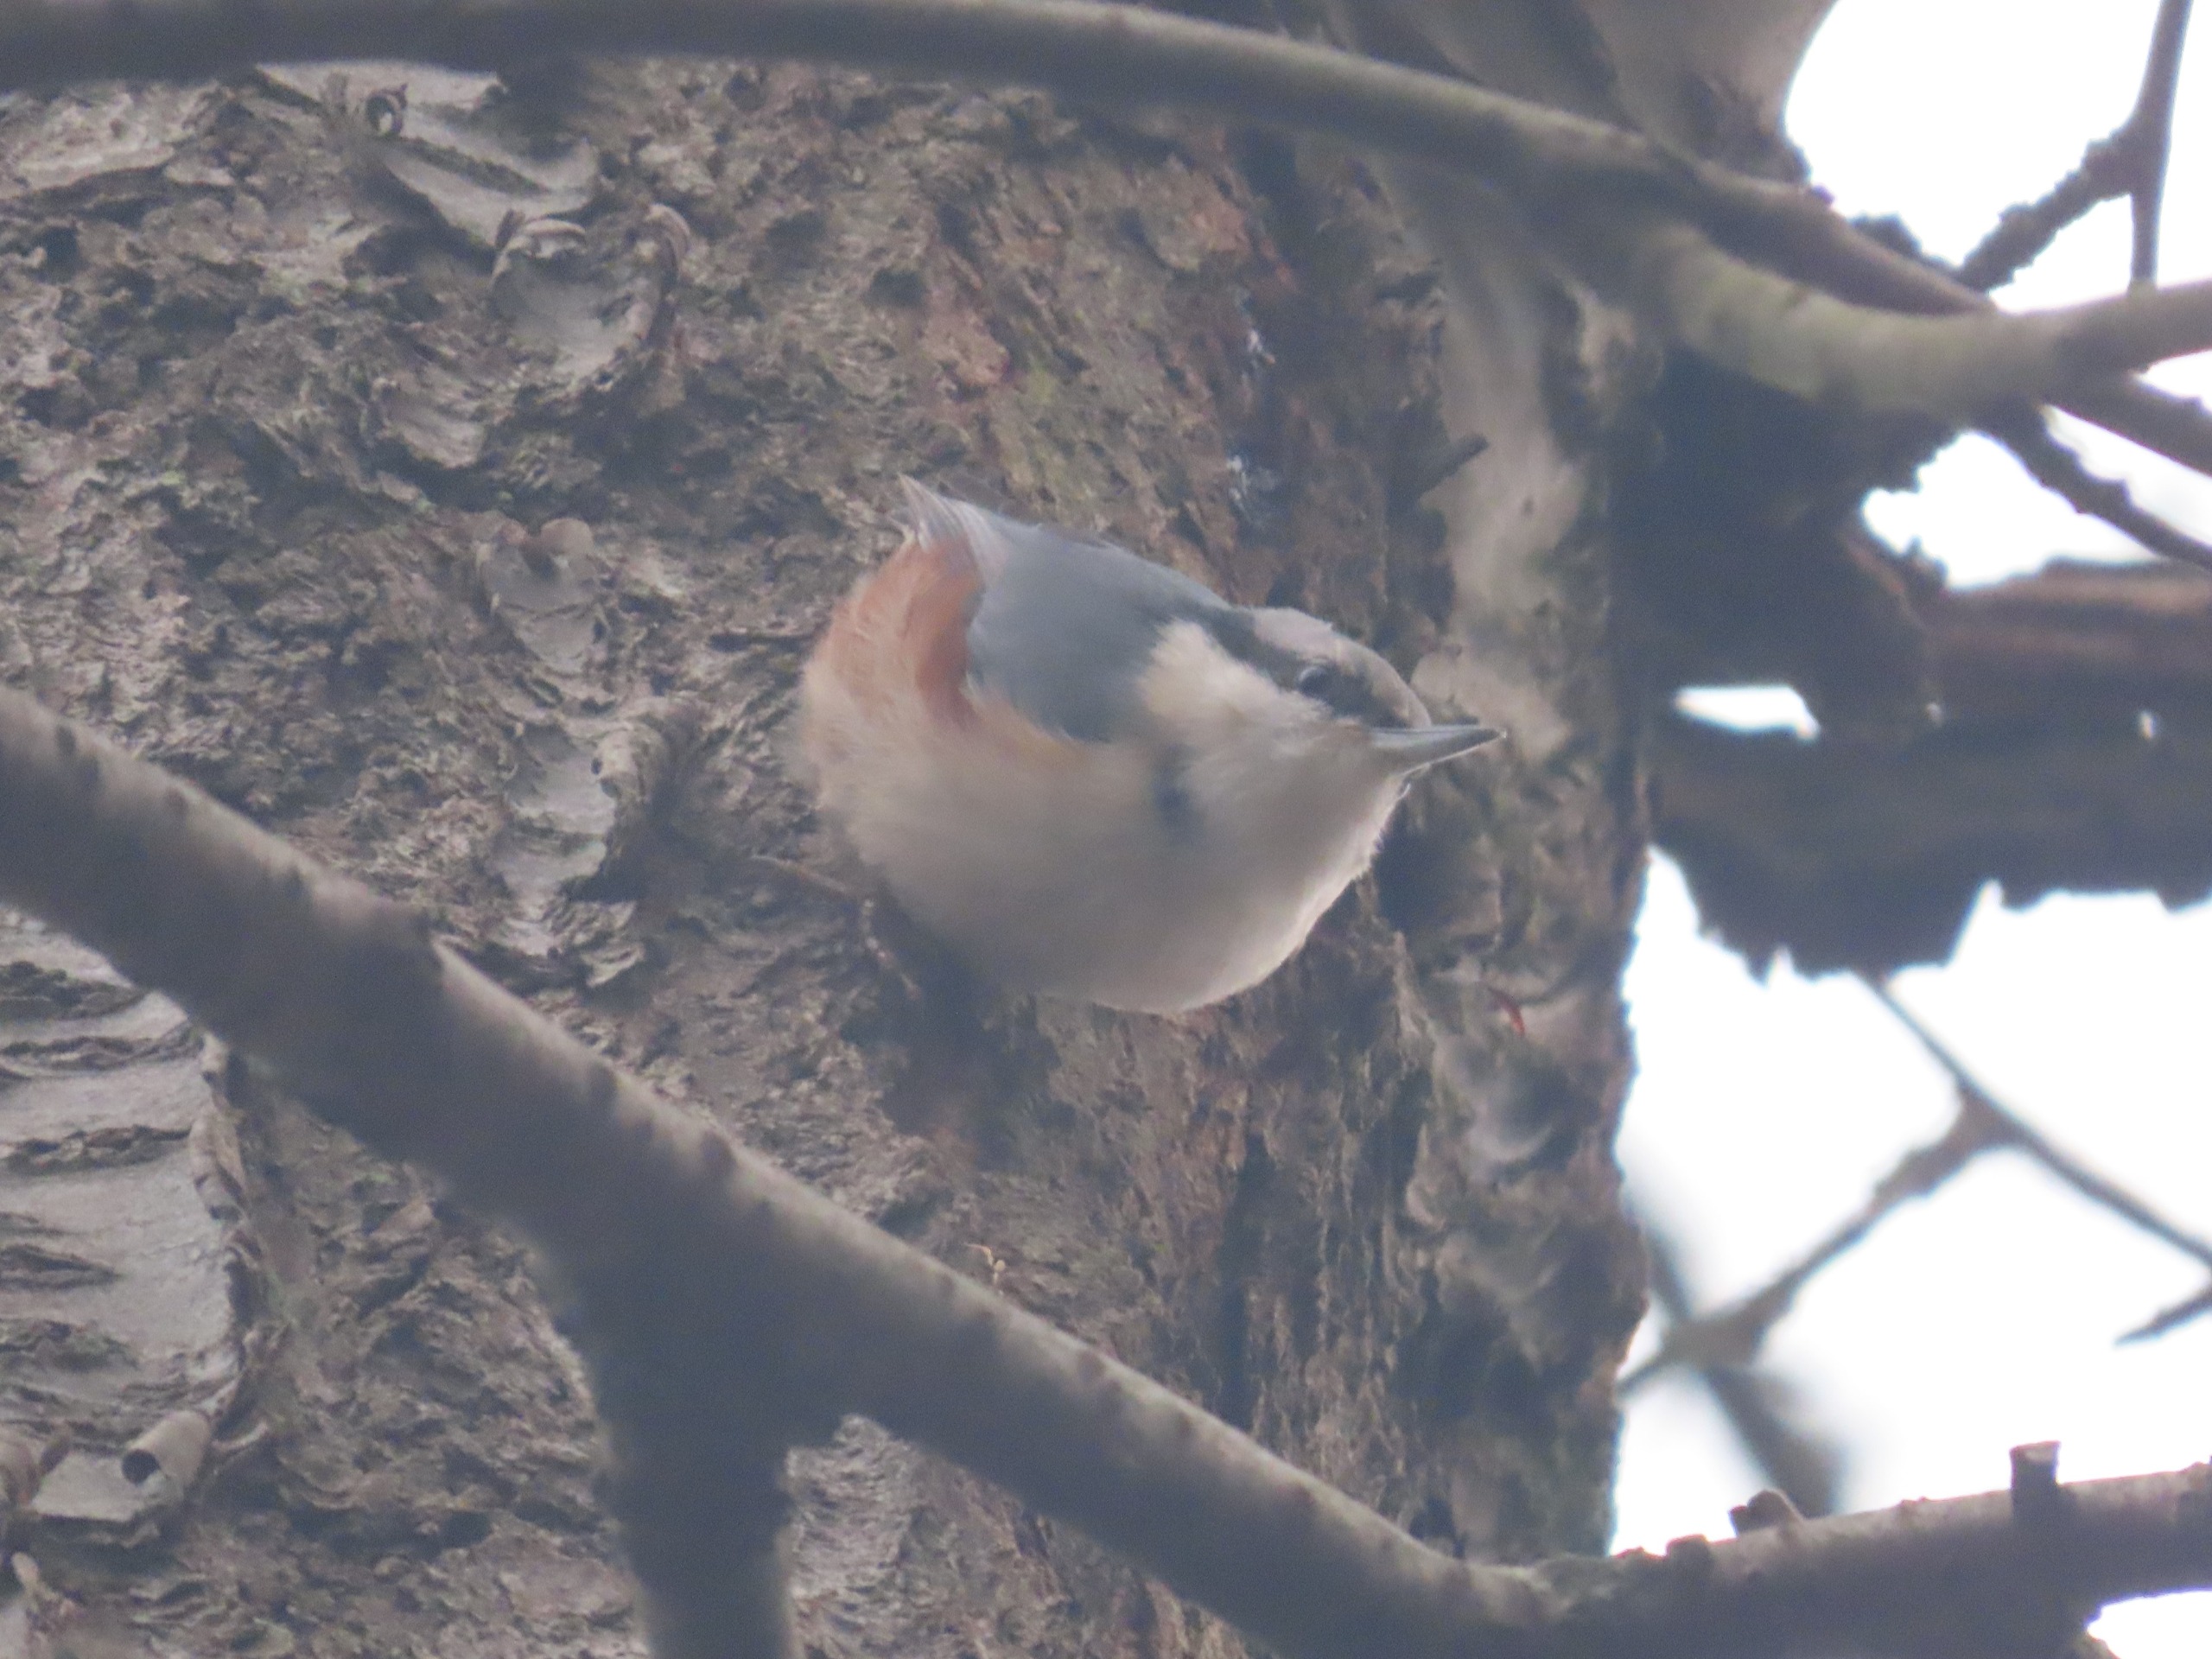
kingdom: Animalia
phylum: Chordata
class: Aves
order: Passeriformes
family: Sittidae
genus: Sitta
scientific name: Sitta europaea
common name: Spætmejse
